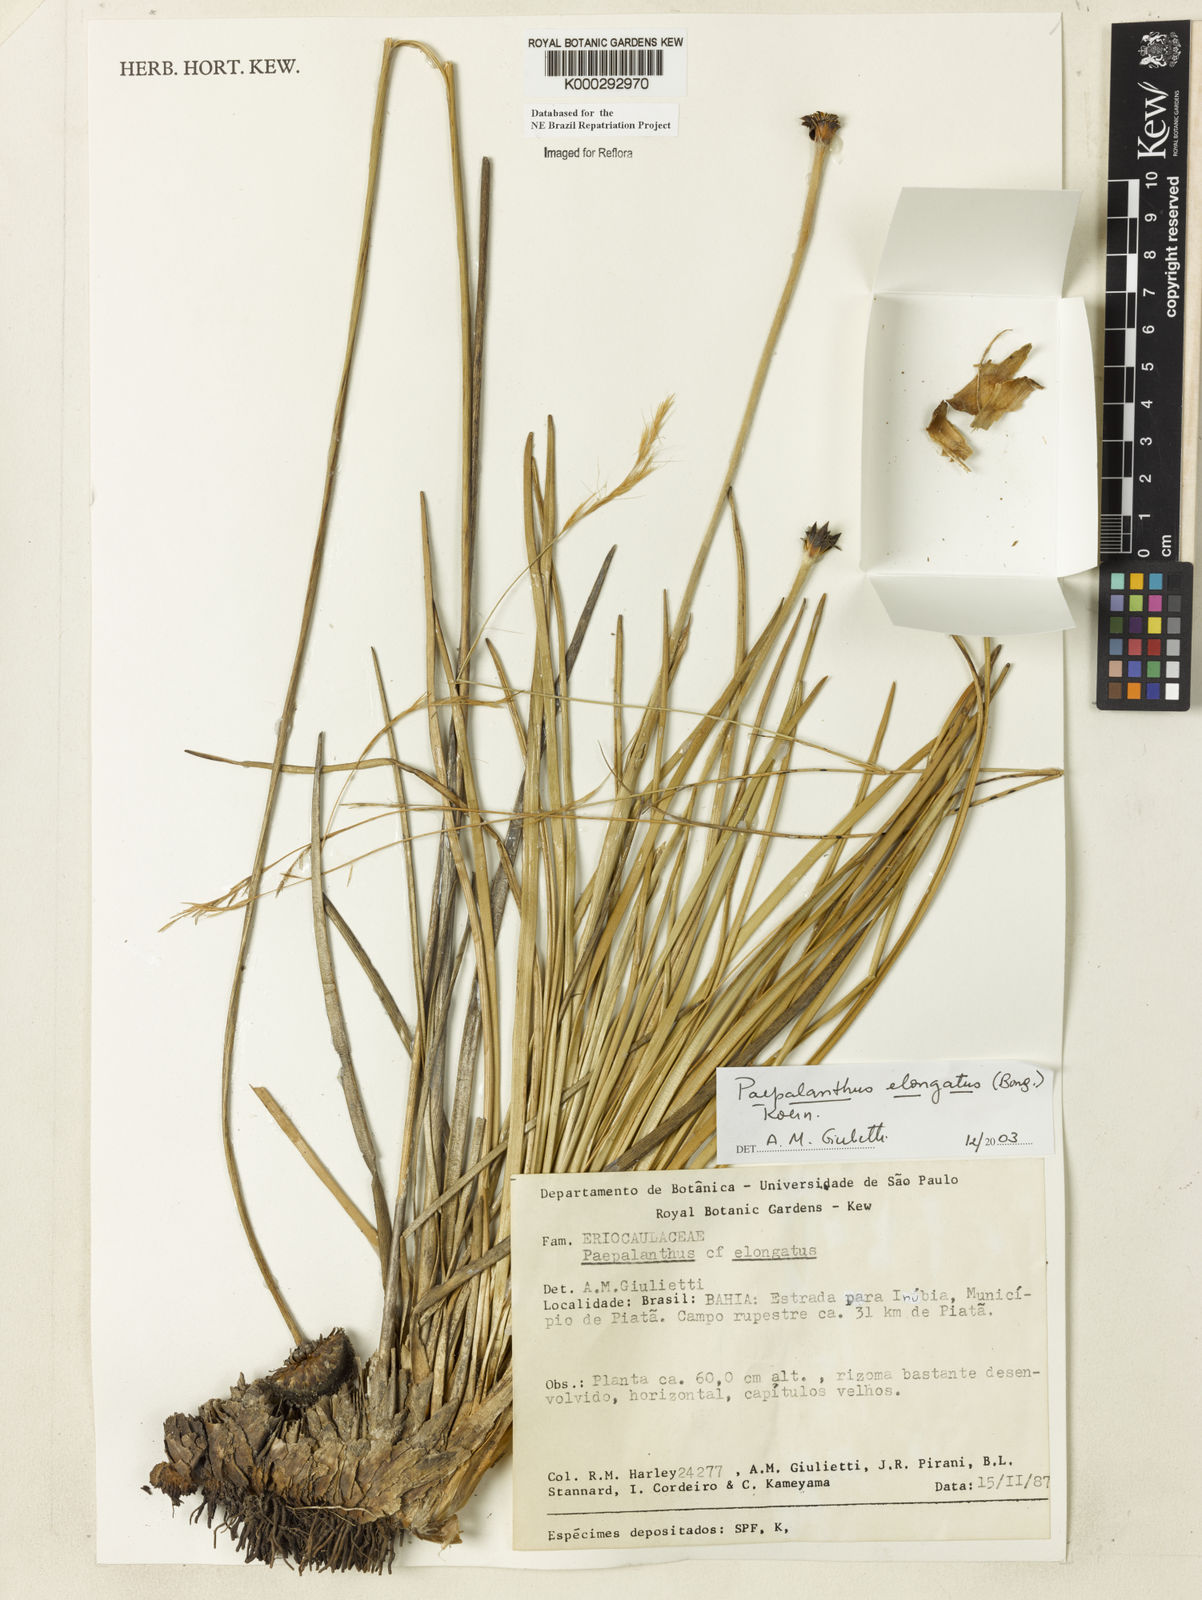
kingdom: Plantae
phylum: Tracheophyta
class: Liliopsida
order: Poales
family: Eriocaulaceae
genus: Paepalanthus
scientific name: Paepalanthus
